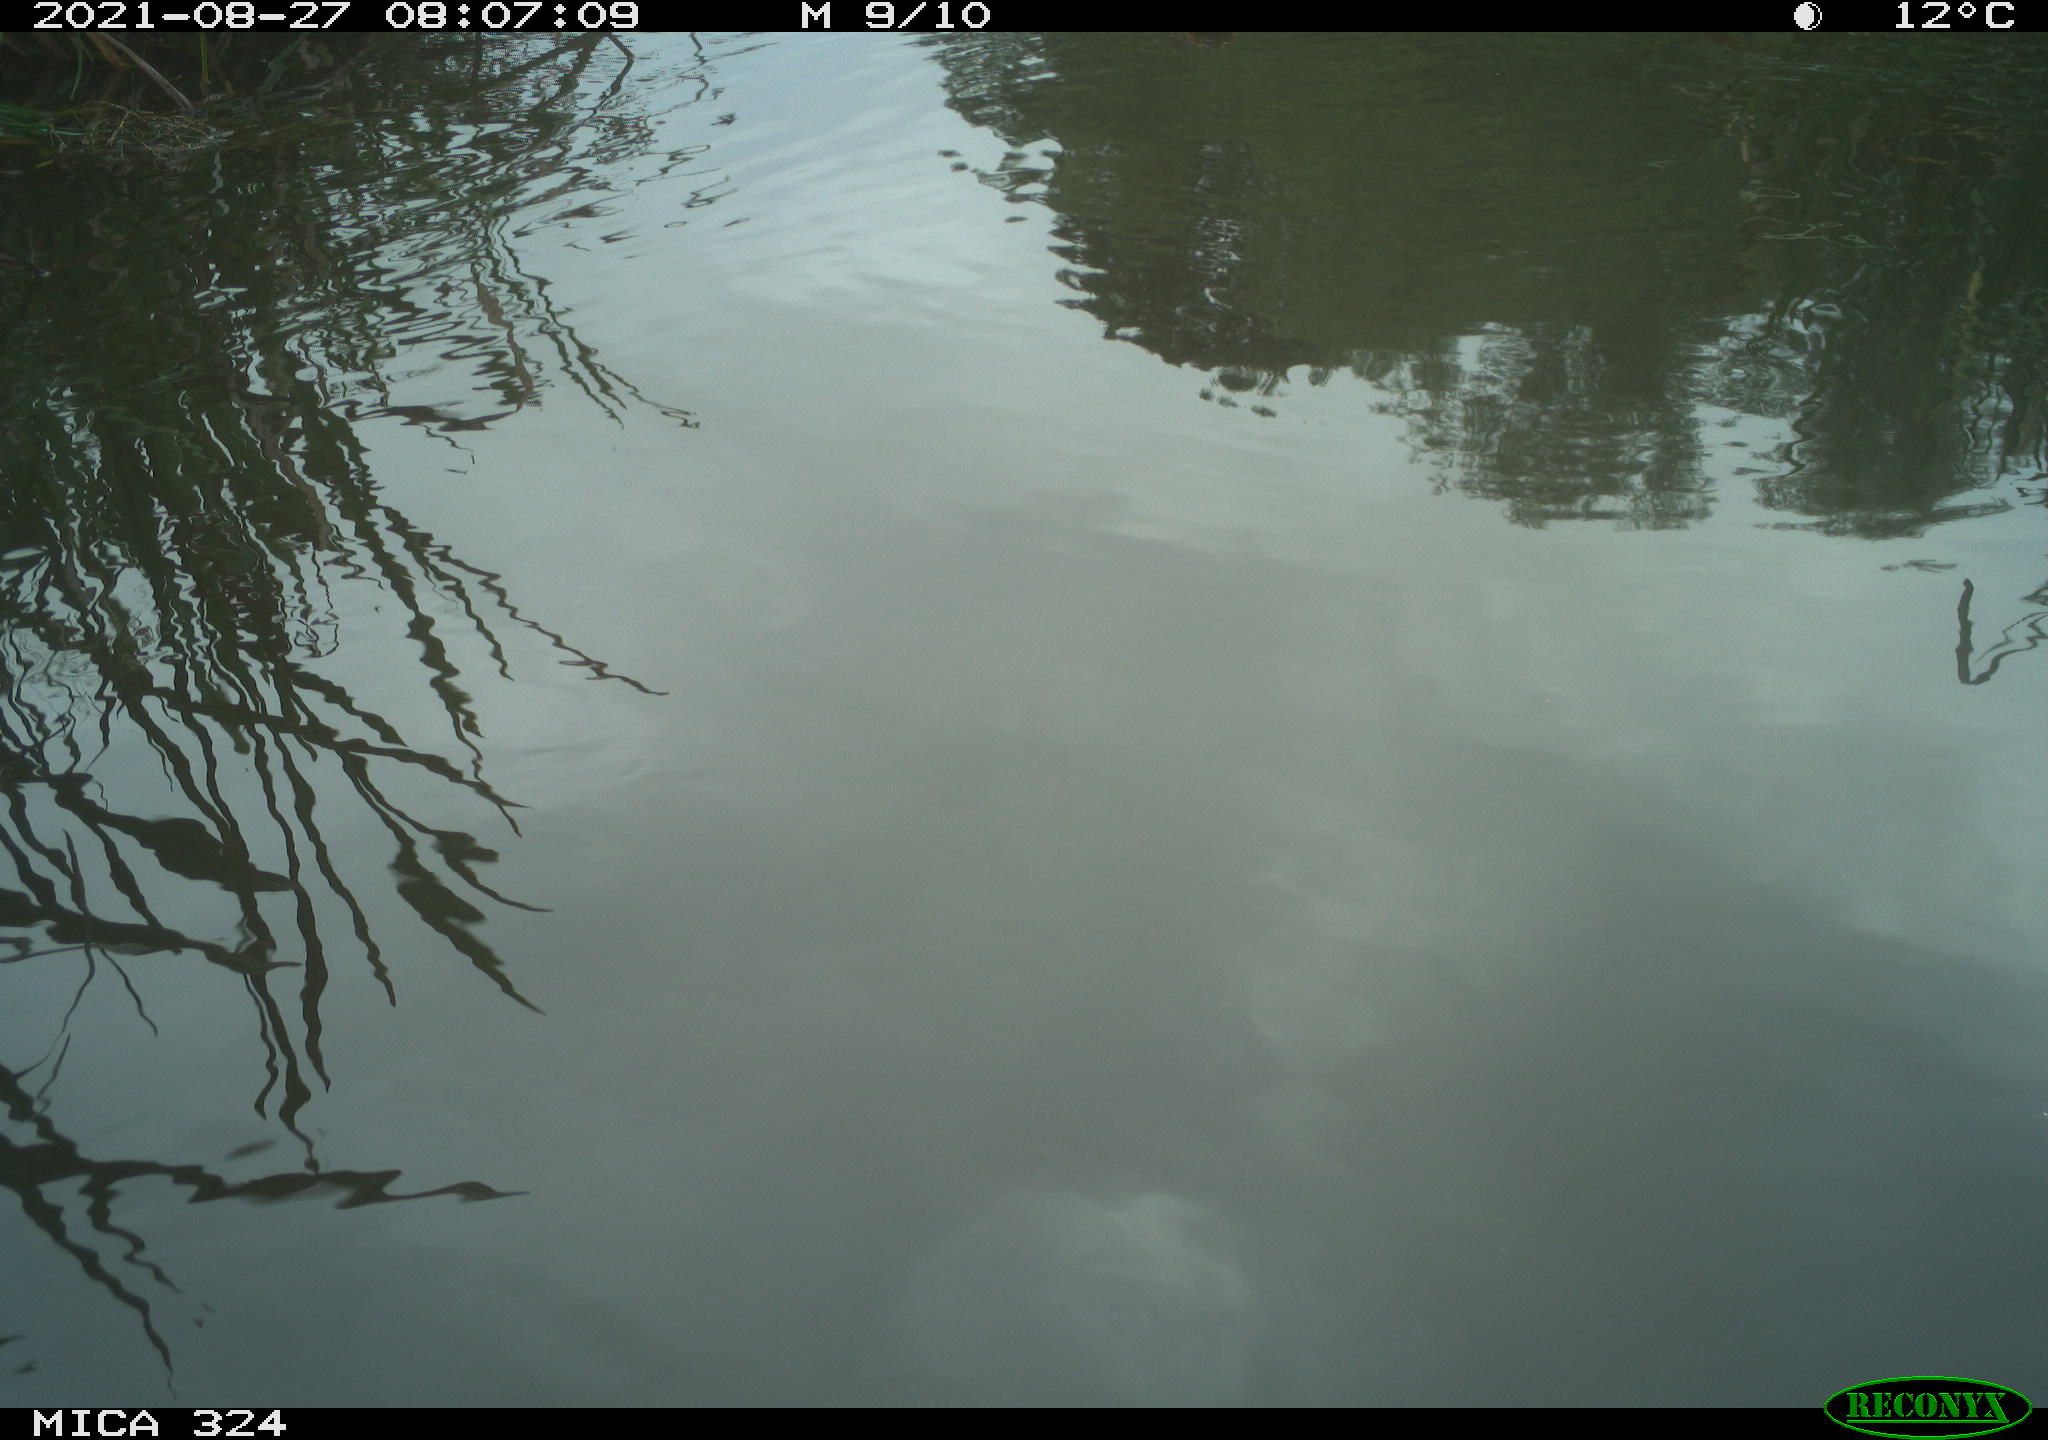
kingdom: Animalia
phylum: Chordata
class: Aves
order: Anseriformes
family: Anatidae
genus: Anas
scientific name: Anas platyrhynchos
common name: Mallard
